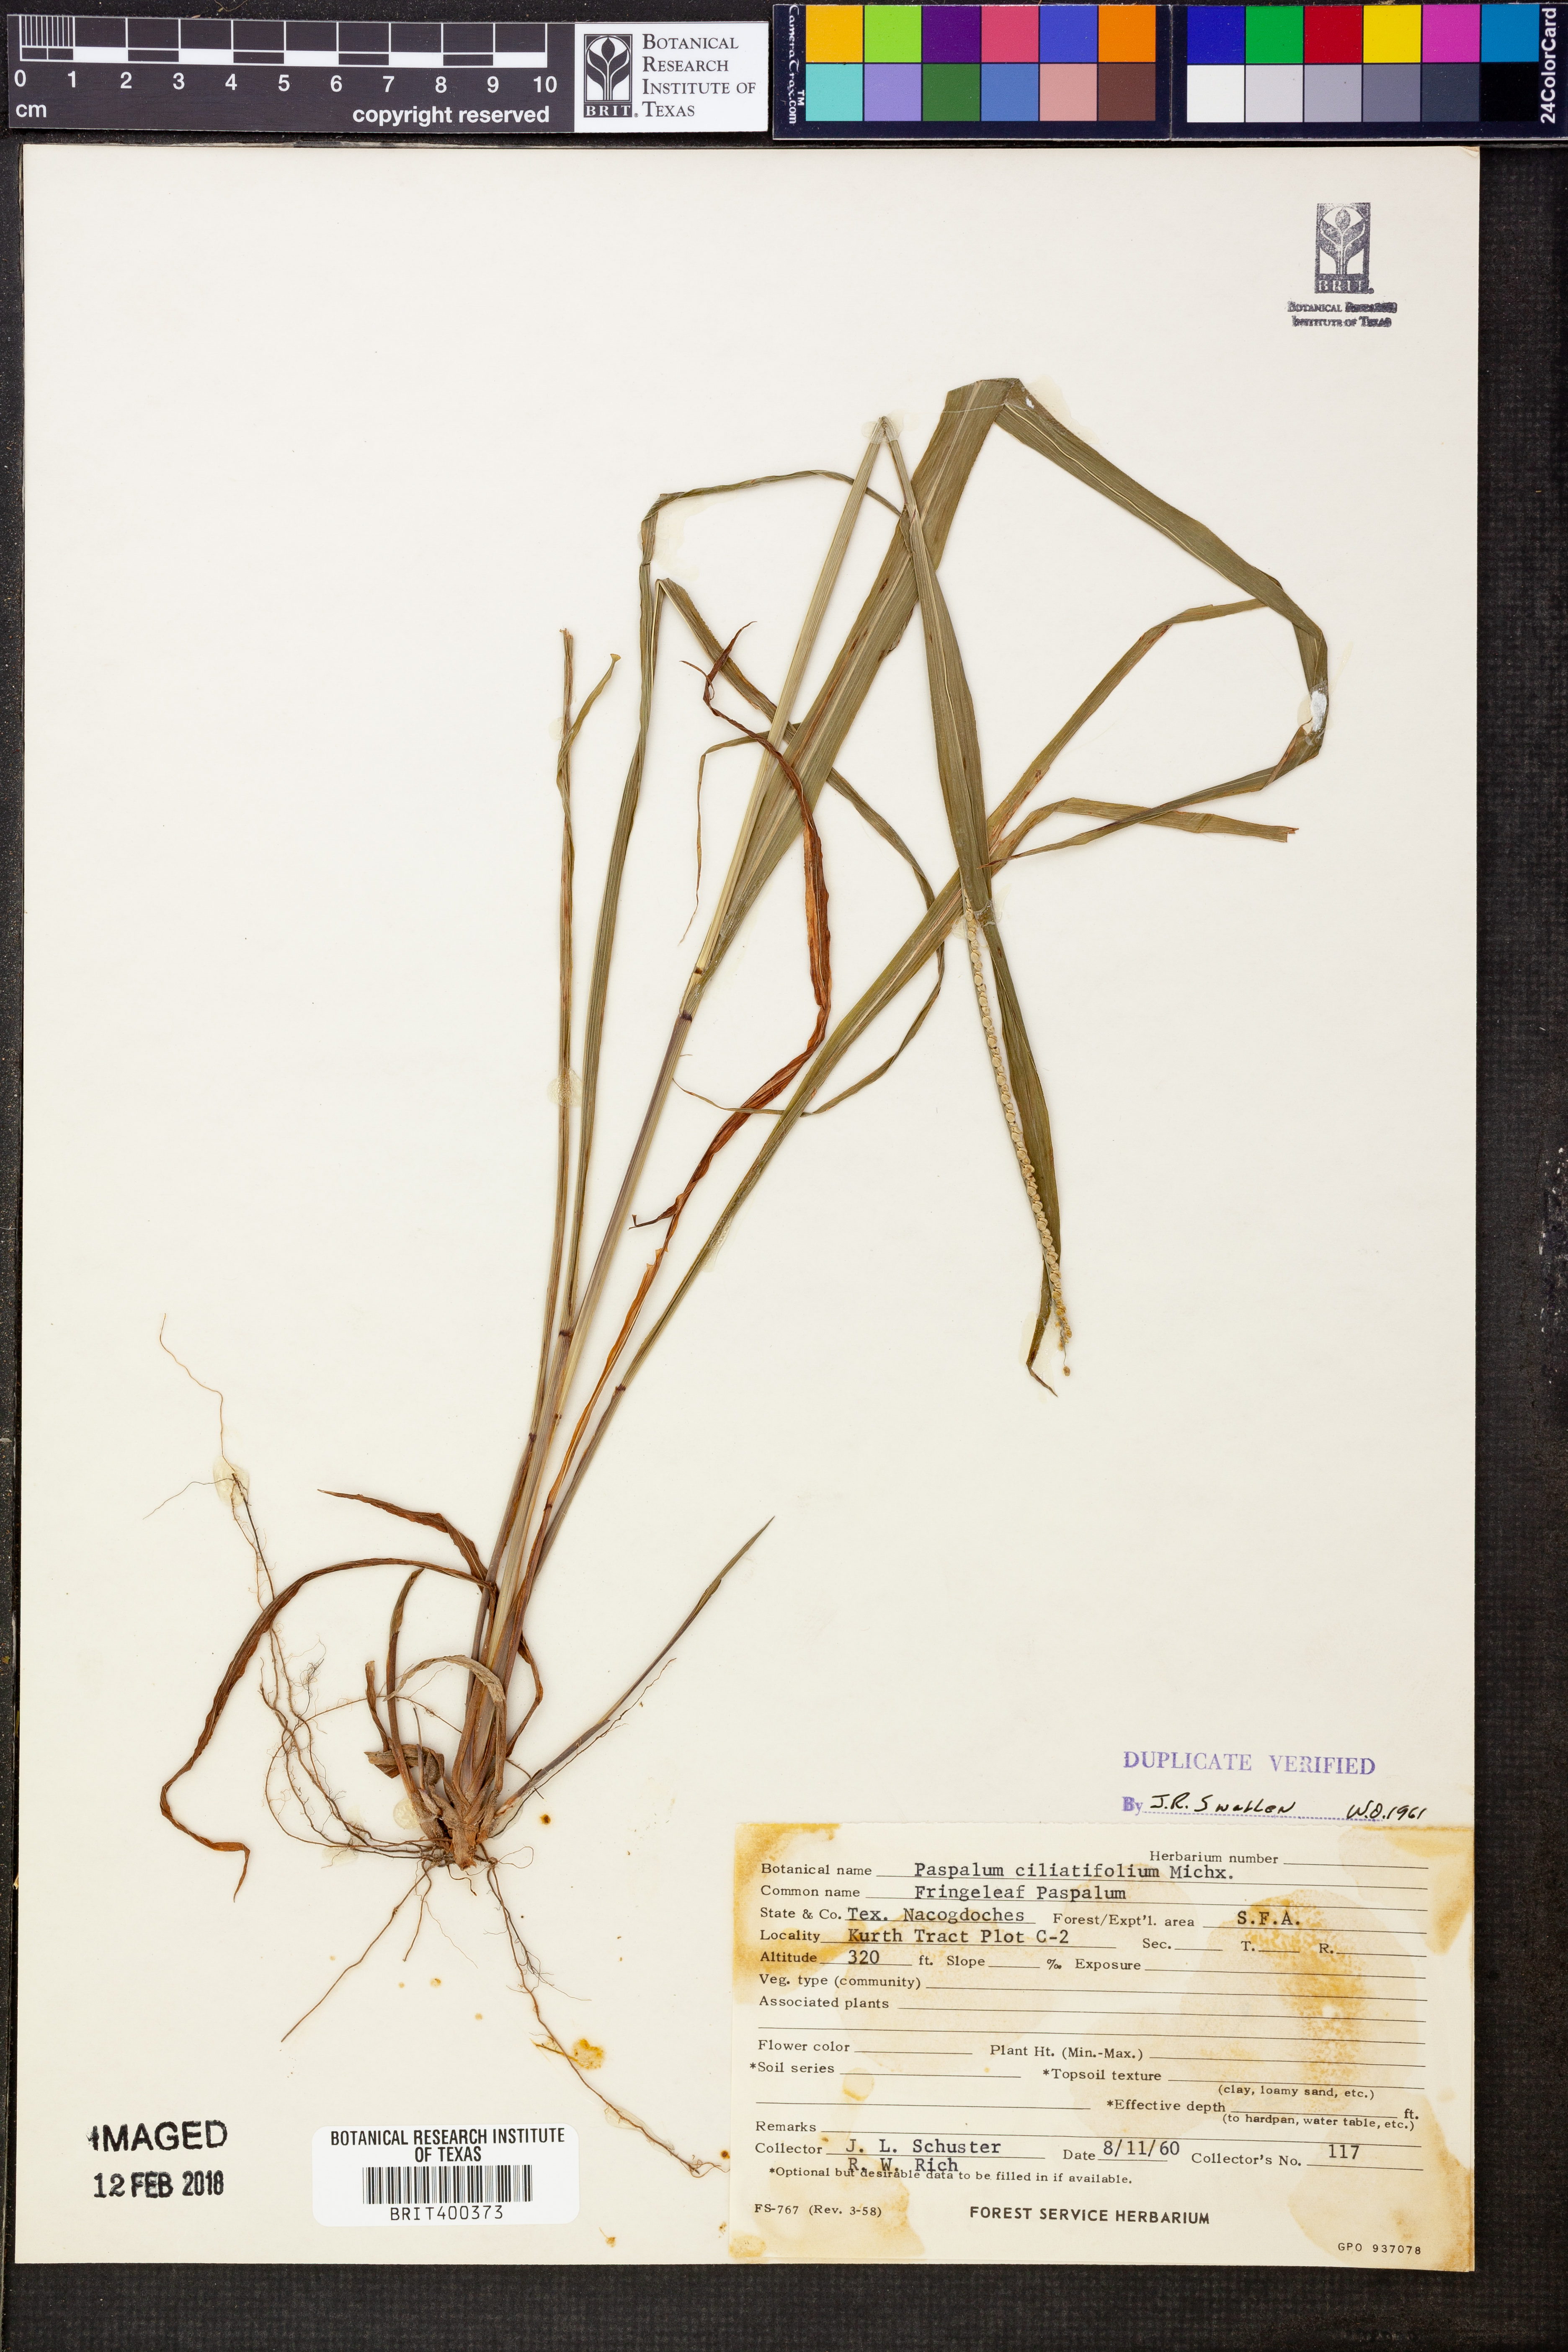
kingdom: Plantae
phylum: Tracheophyta
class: Liliopsida
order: Poales
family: Poaceae
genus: Paspalum
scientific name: Paspalum setaceum
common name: Slender paspalum
